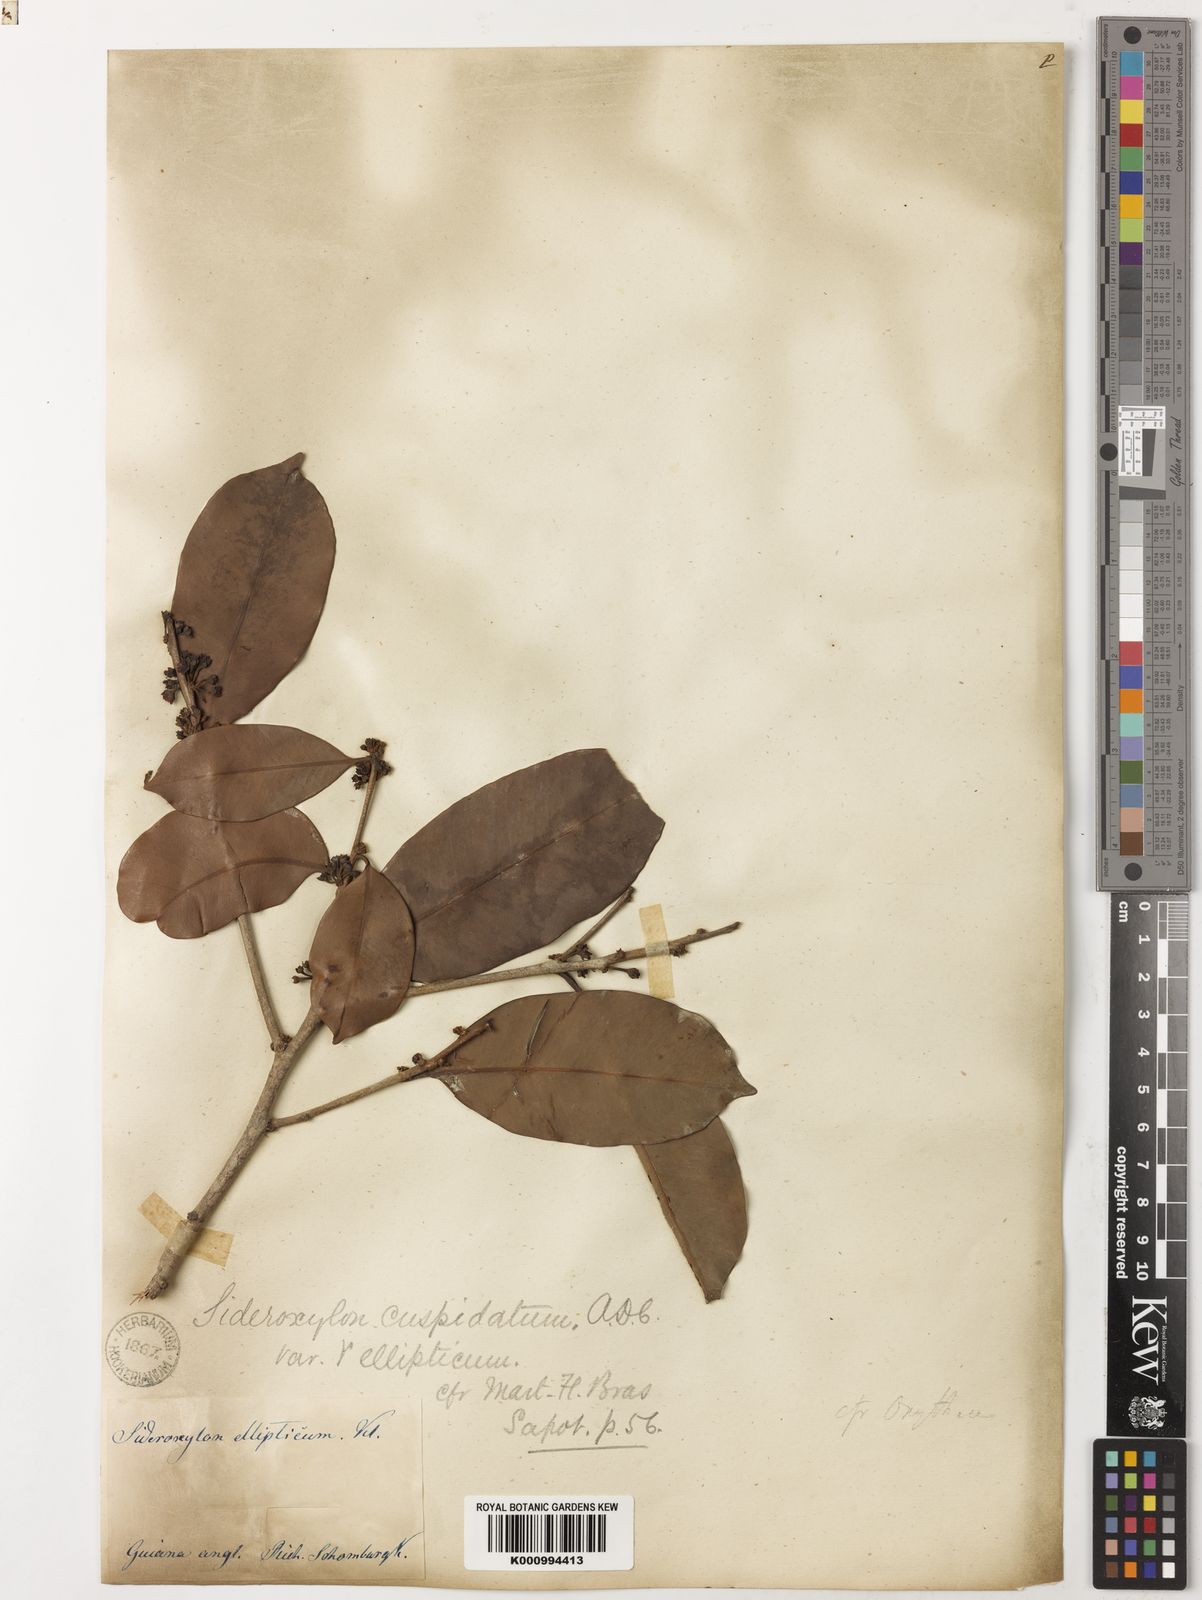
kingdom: Plantae
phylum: Tracheophyta
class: Magnoliopsida
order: Ericales
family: Sapotaceae
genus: Pouteria
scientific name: Pouteria cuspidata
